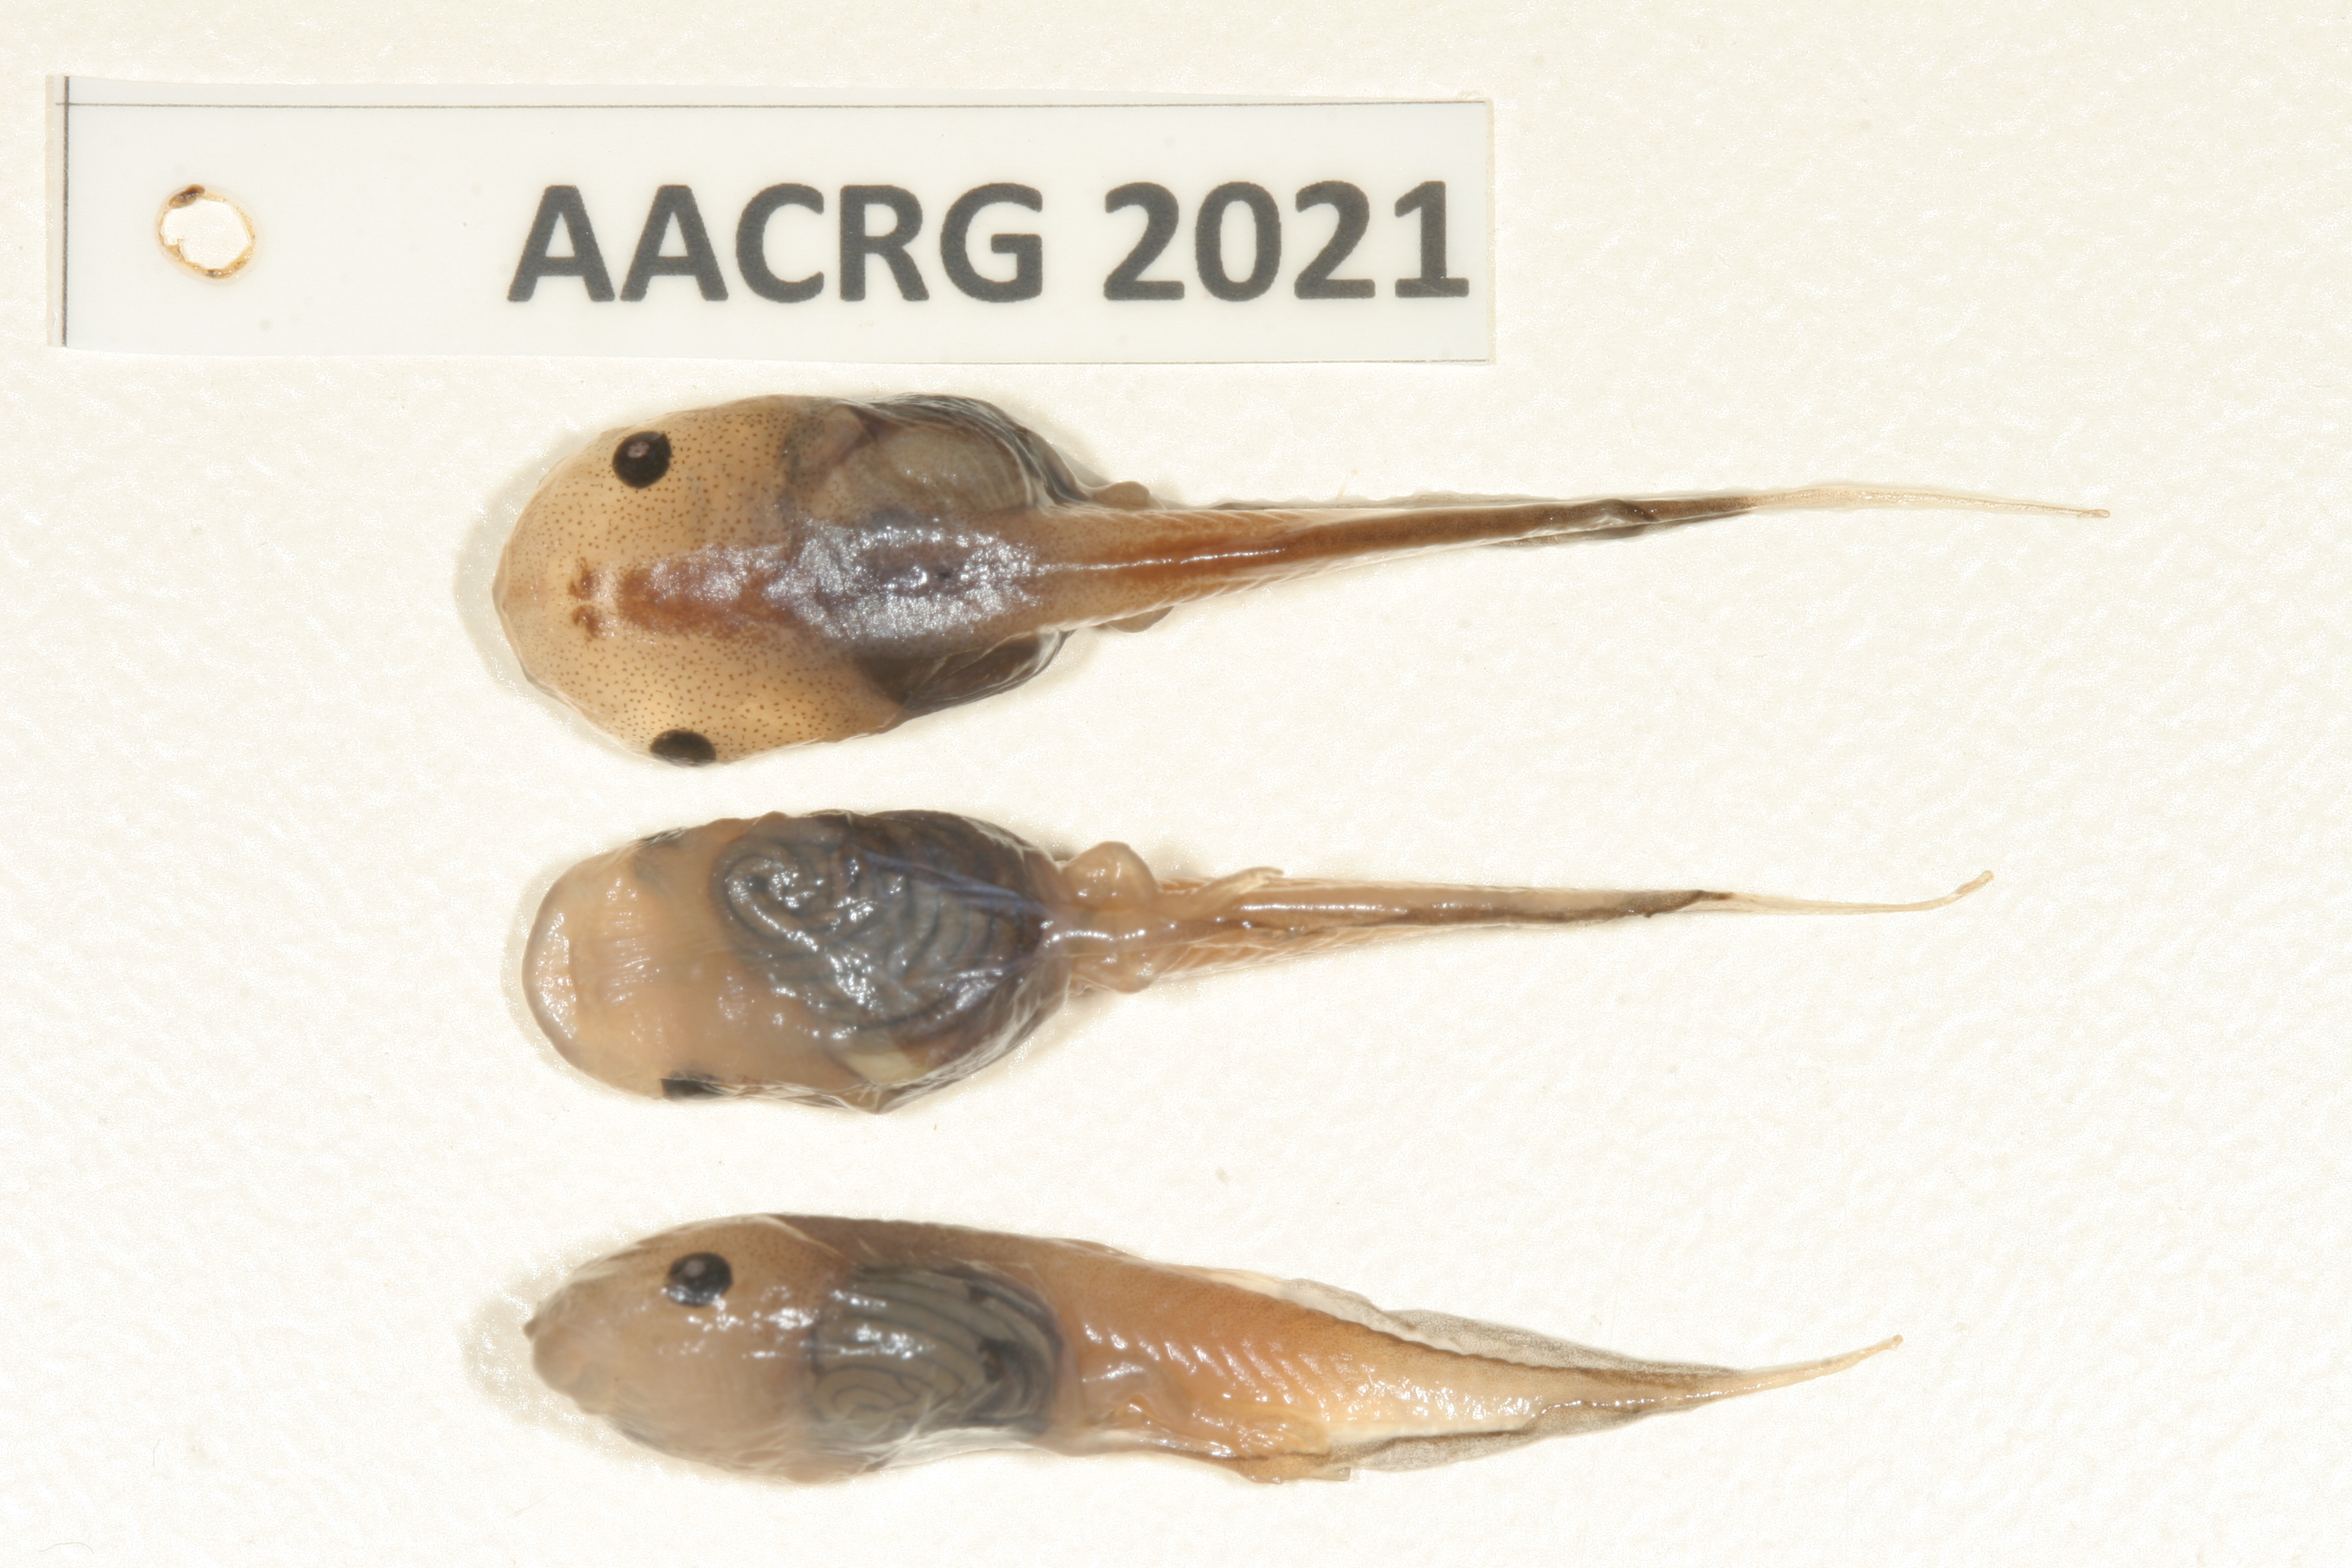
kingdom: Animalia
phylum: Chordata
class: Amphibia
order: Anura
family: Microhylidae
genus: Phrynomantis
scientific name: Phrynomantis bifasciatus
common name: Banded rubber frog
